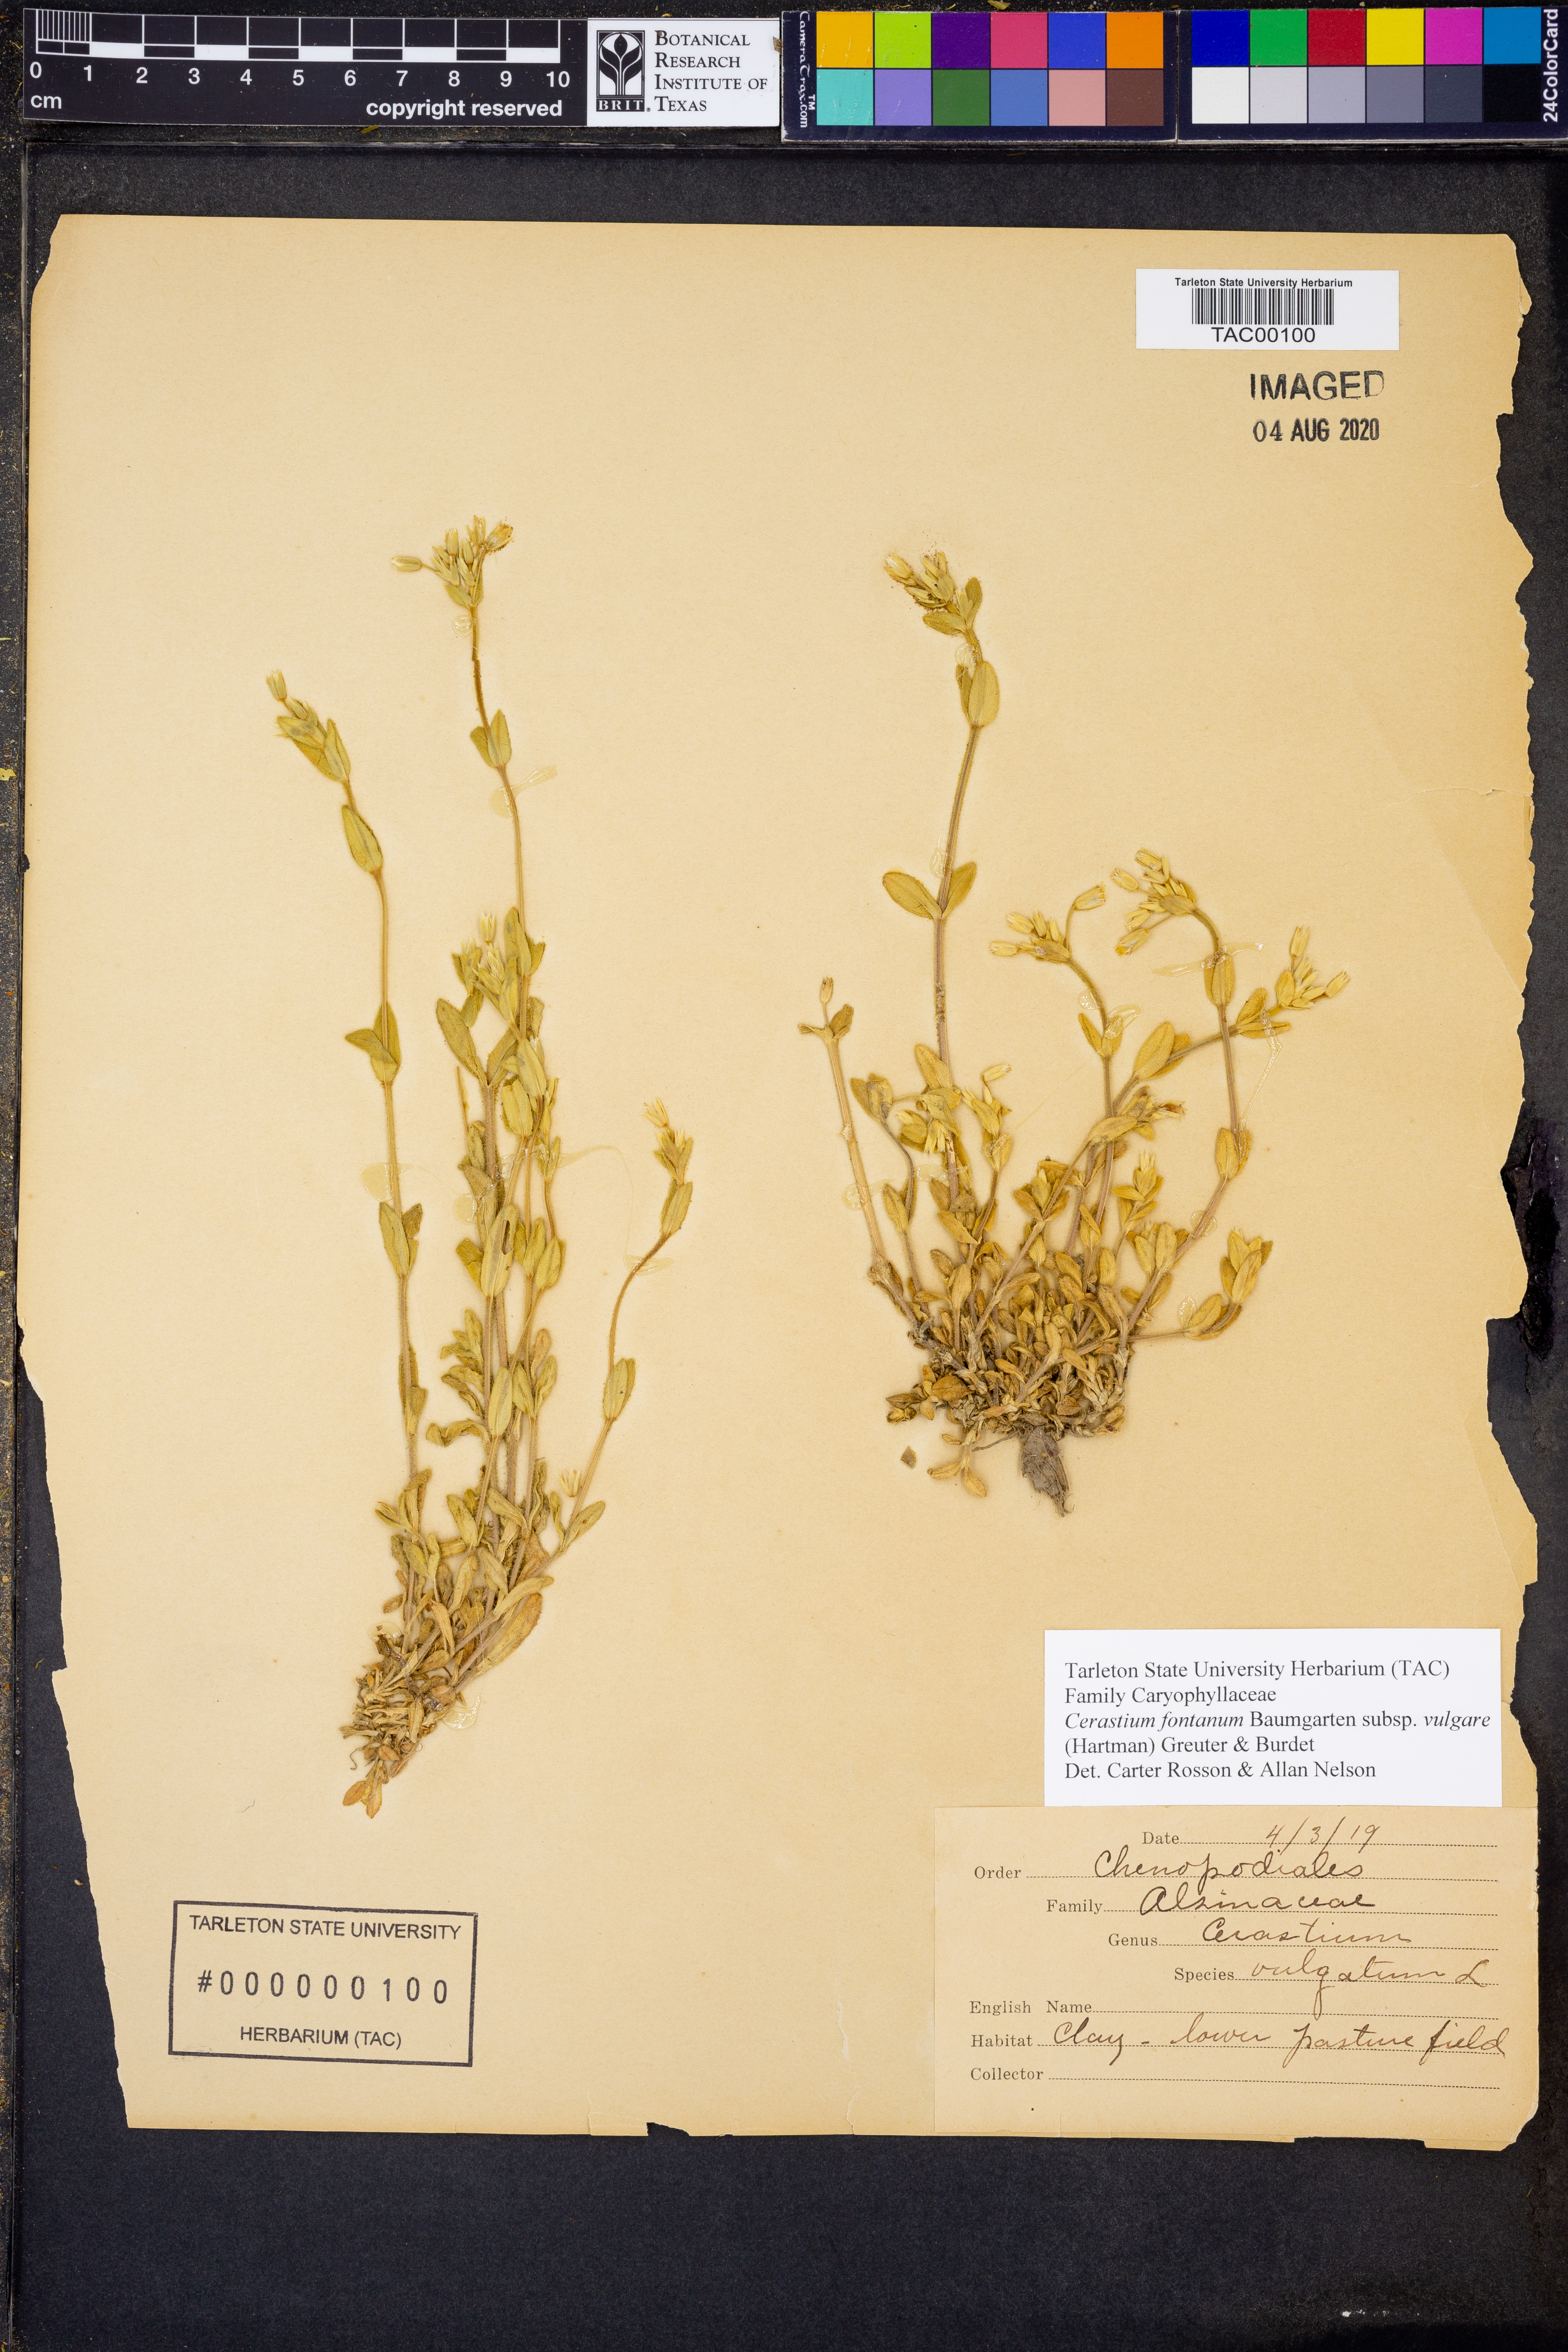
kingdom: Plantae
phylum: Tracheophyta
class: Magnoliopsida
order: Caryophyllales
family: Caryophyllaceae
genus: Cerastium
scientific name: Cerastium holosteoides
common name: Big chickweed
